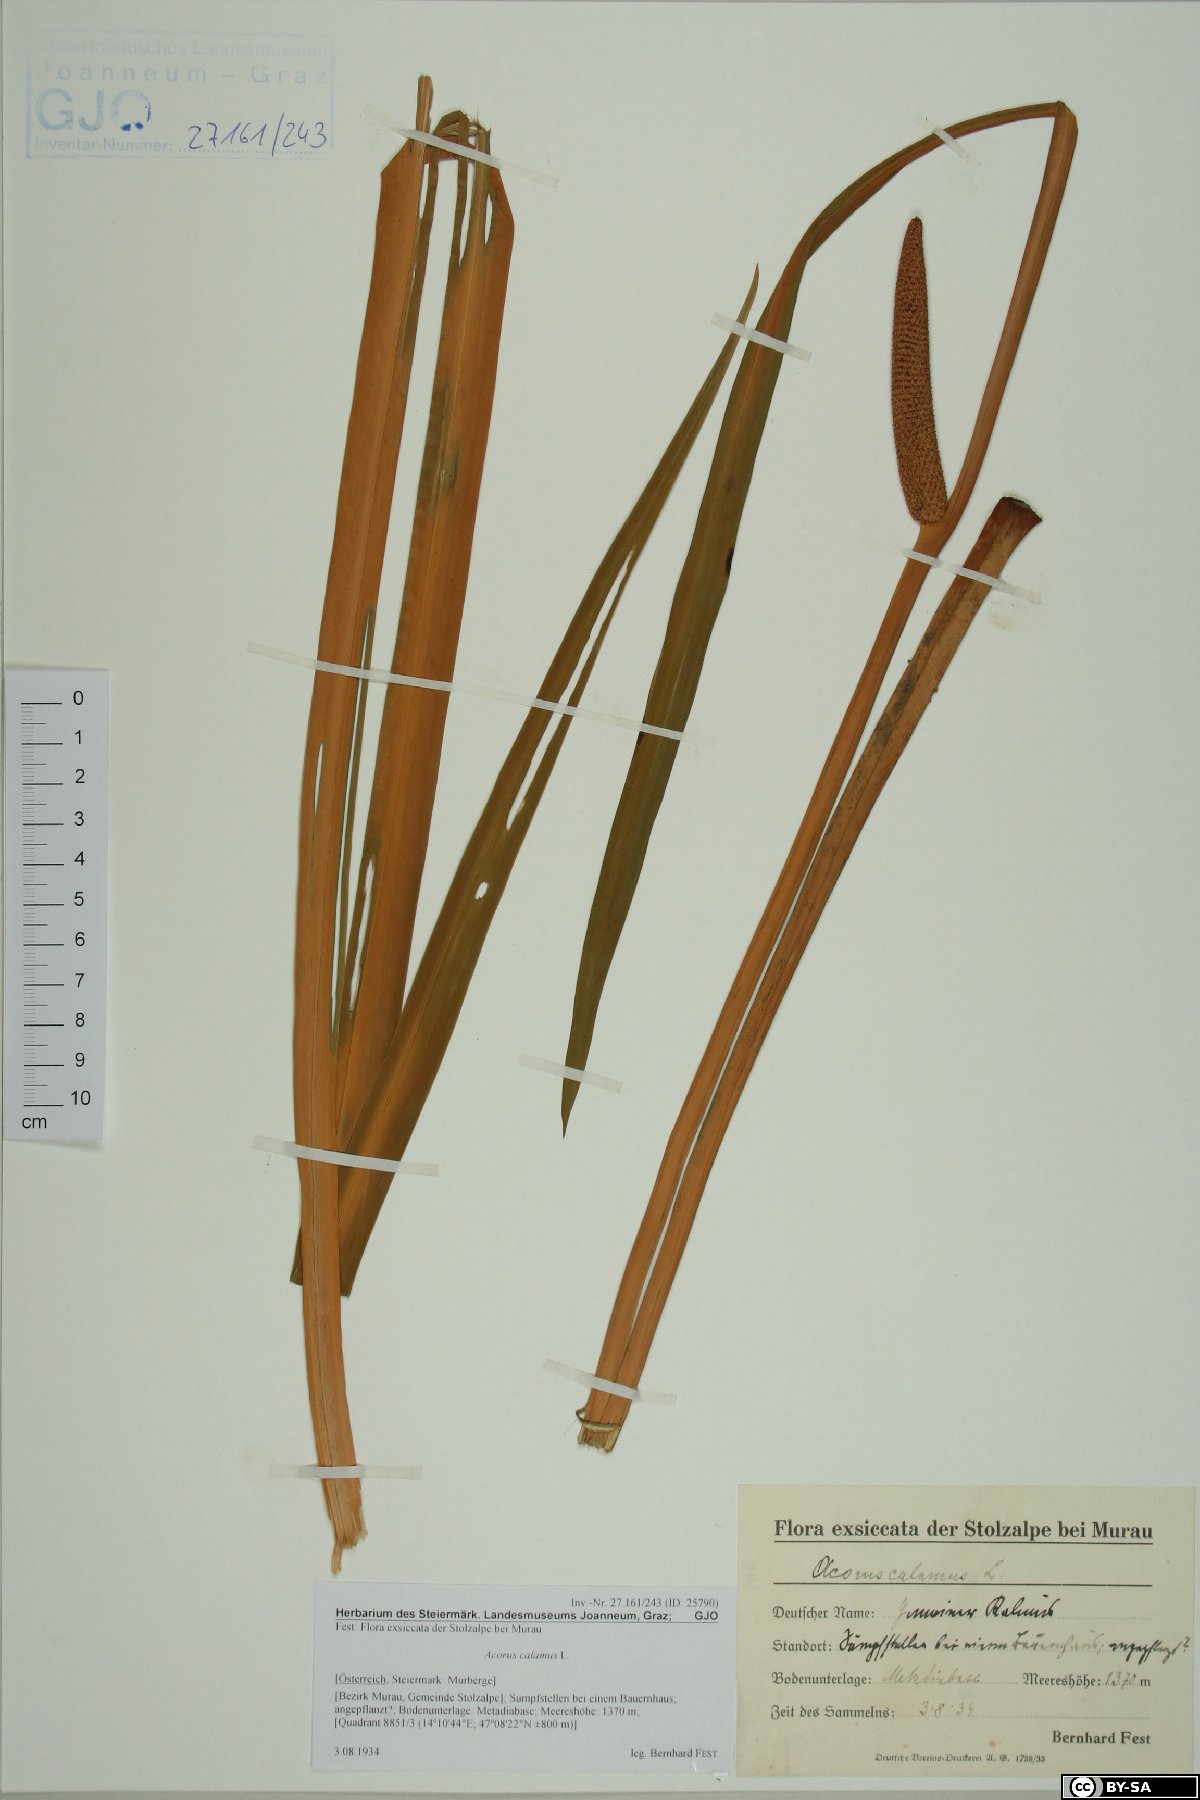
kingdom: Plantae
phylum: Tracheophyta
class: Liliopsida
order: Acorales
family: Acoraceae
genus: Acorus
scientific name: Acorus calamus
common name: Sweet-flag
